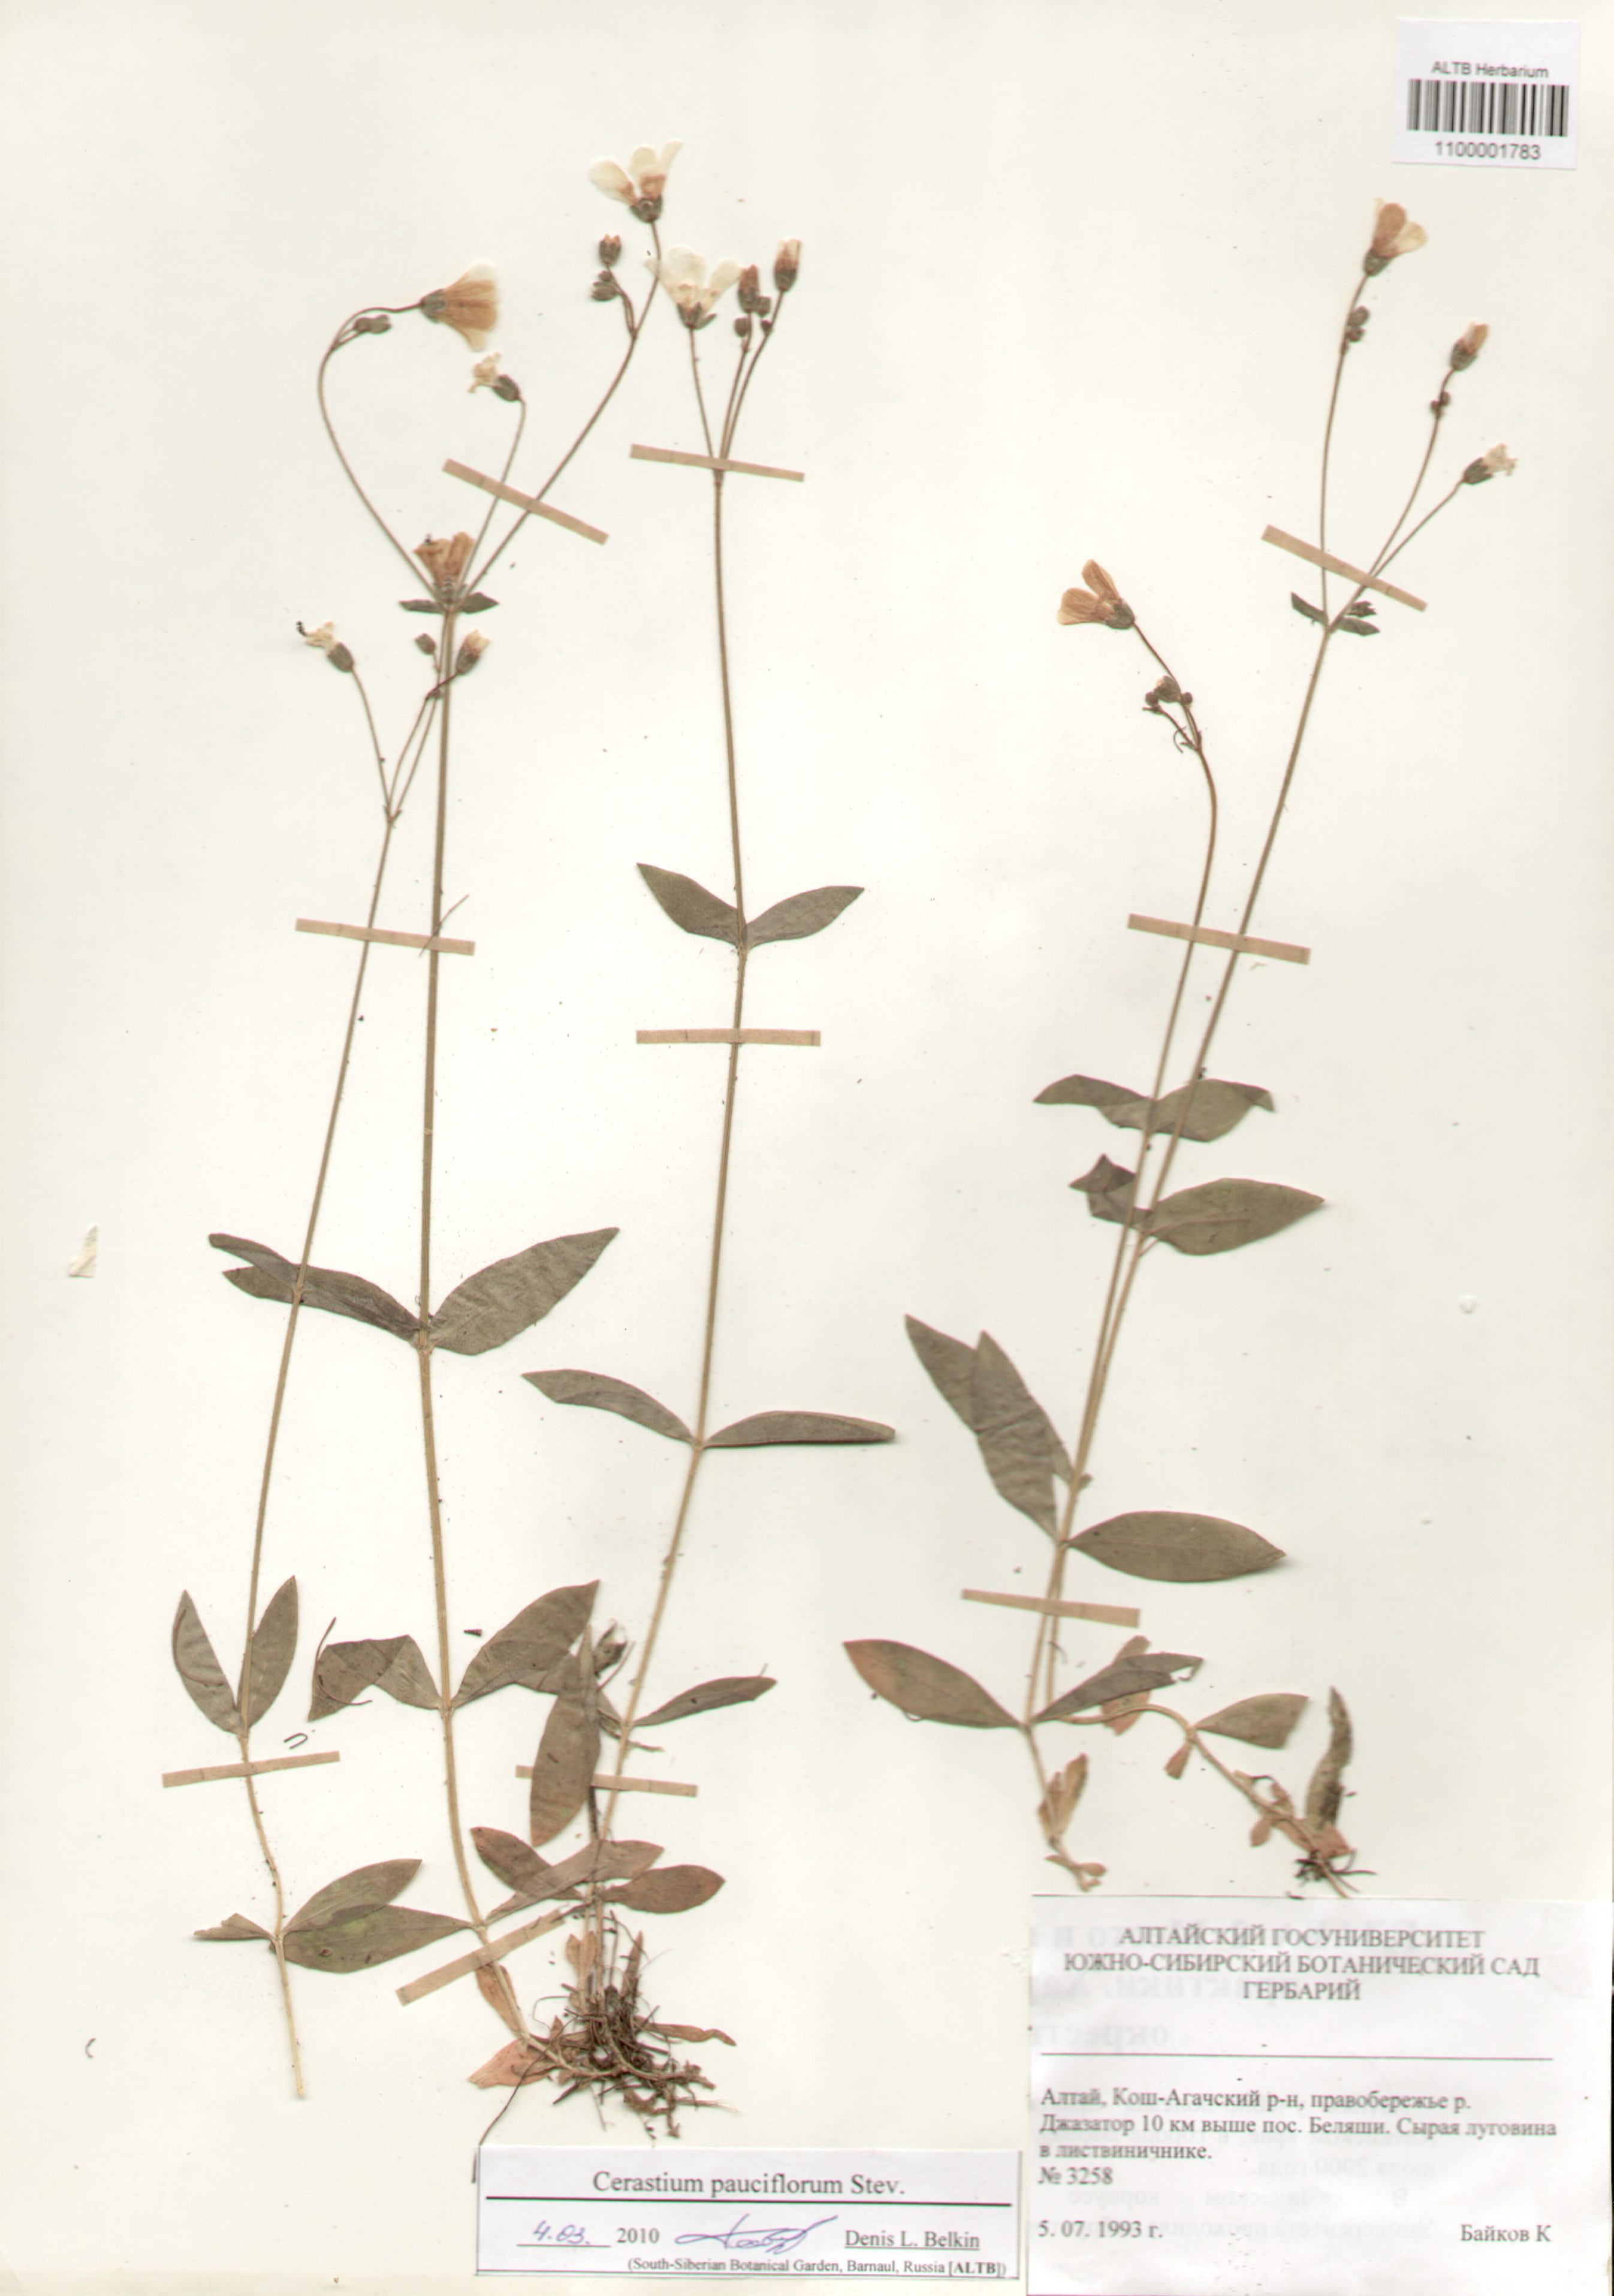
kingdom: Plantae
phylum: Tracheophyta
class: Magnoliopsida
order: Caryophyllales
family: Caryophyllaceae
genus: Cerastium
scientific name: Cerastium pauciflorum
